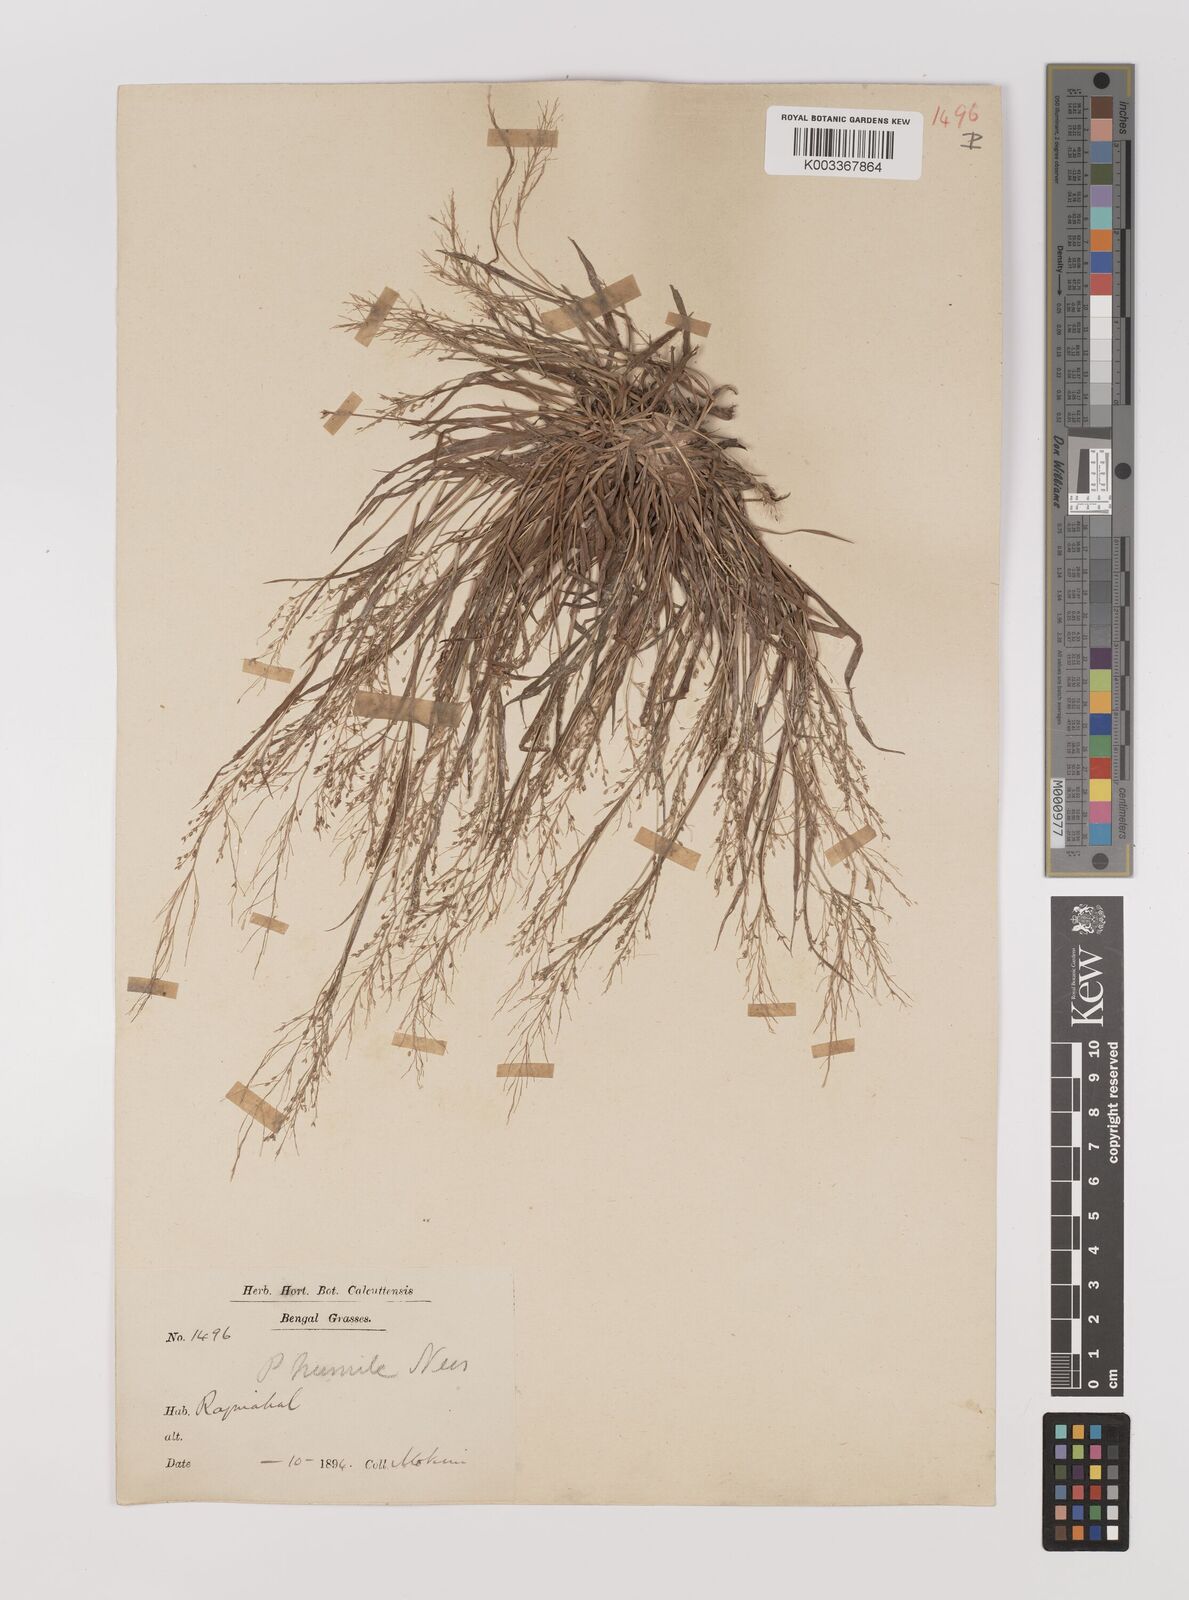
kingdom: Plantae
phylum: Tracheophyta
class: Liliopsida
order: Poales
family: Poaceae
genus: Panicum
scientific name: Panicum humile
